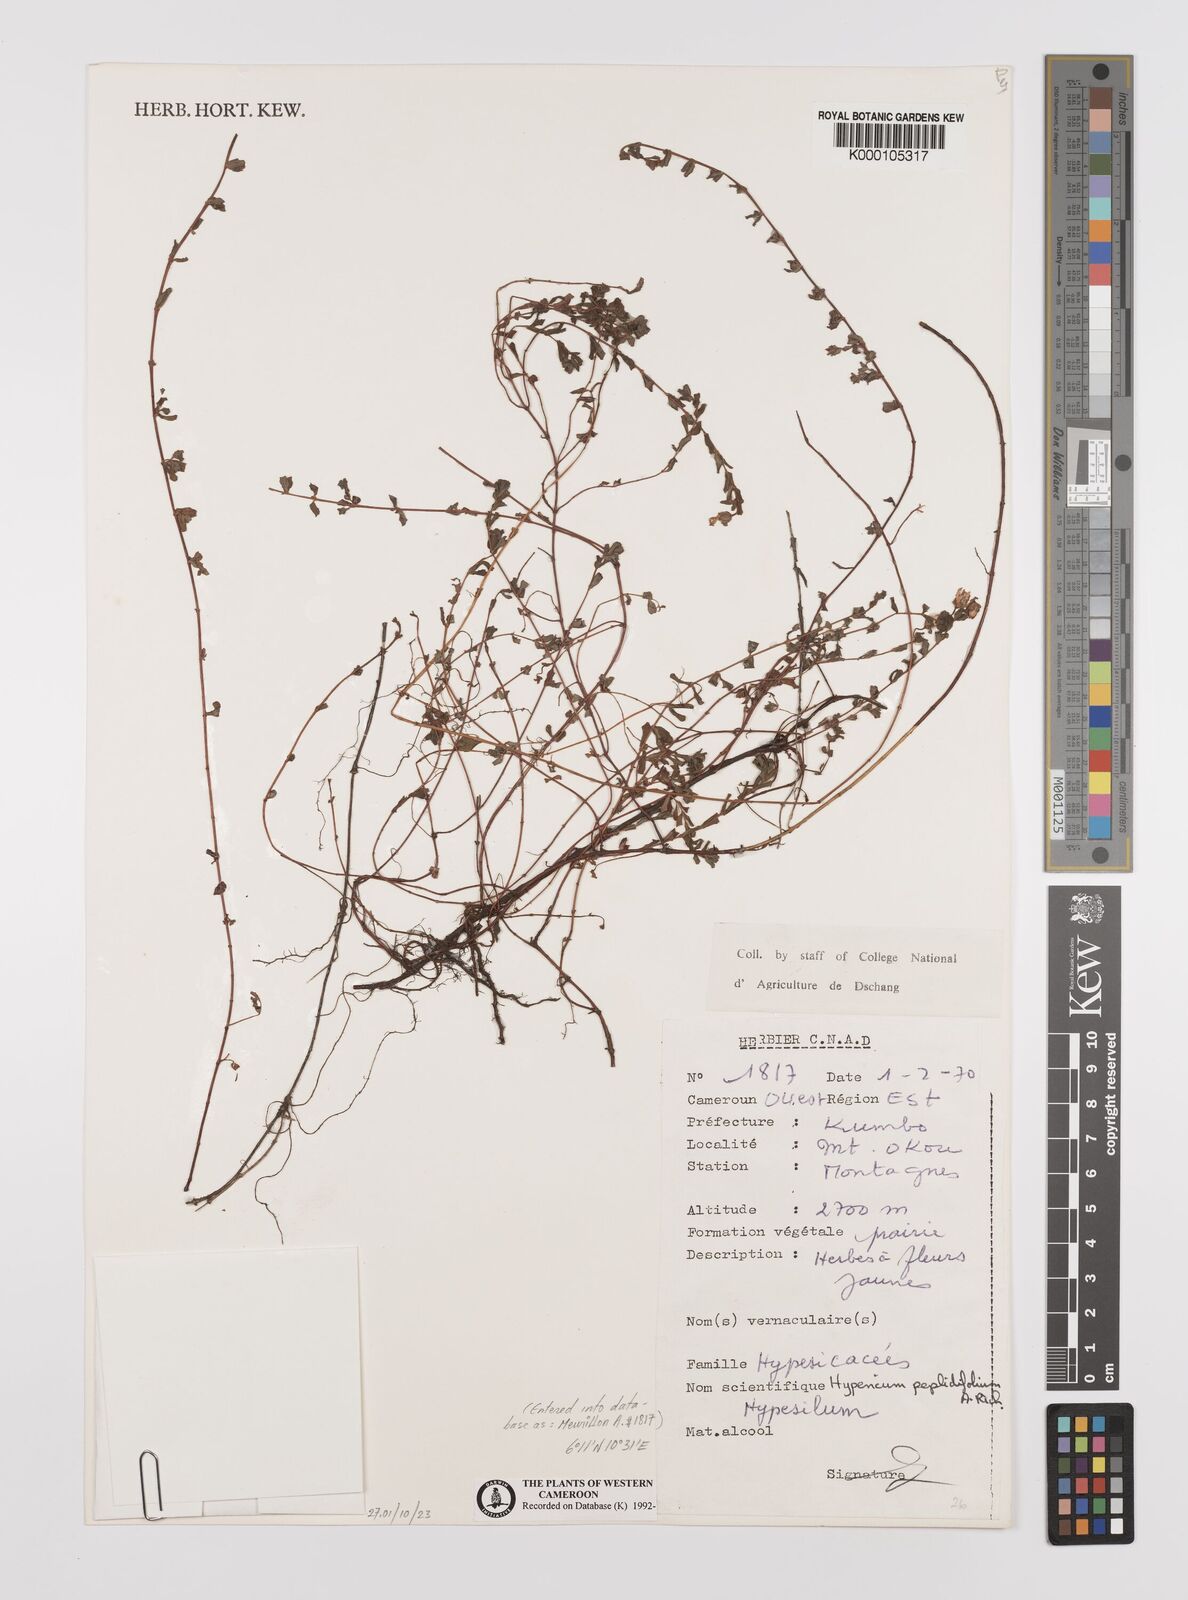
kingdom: Plantae
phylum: Tracheophyta
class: Magnoliopsida
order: Malpighiales
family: Hypericaceae
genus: Hypericum
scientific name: Hypericum peplidifolium
